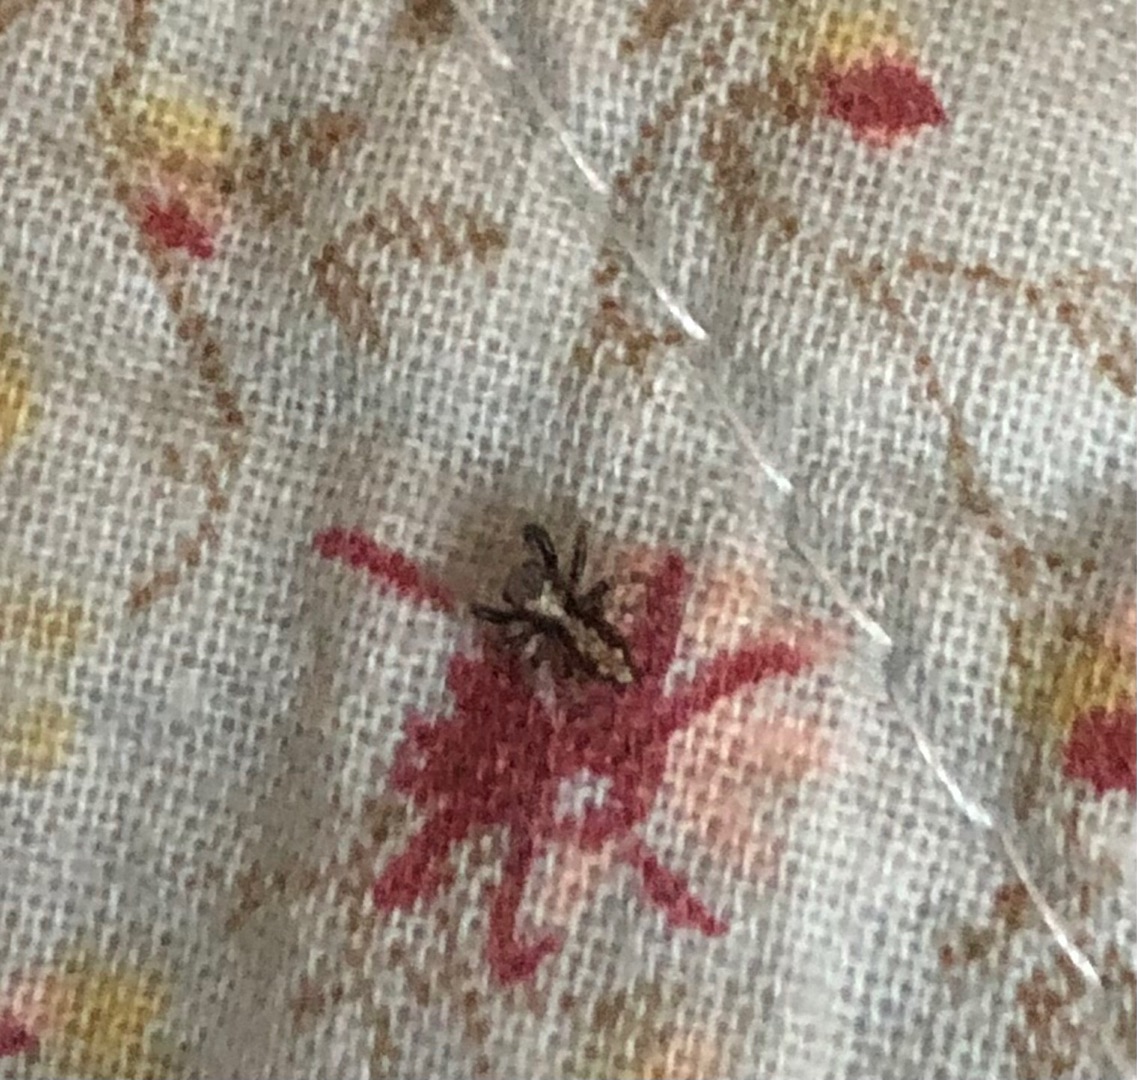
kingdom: Animalia
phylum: Arthropoda
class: Arachnida
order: Araneae
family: Salticidae
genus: Pseudeuophrys
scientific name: Pseudeuophrys lanigera
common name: Vinduesspringer
